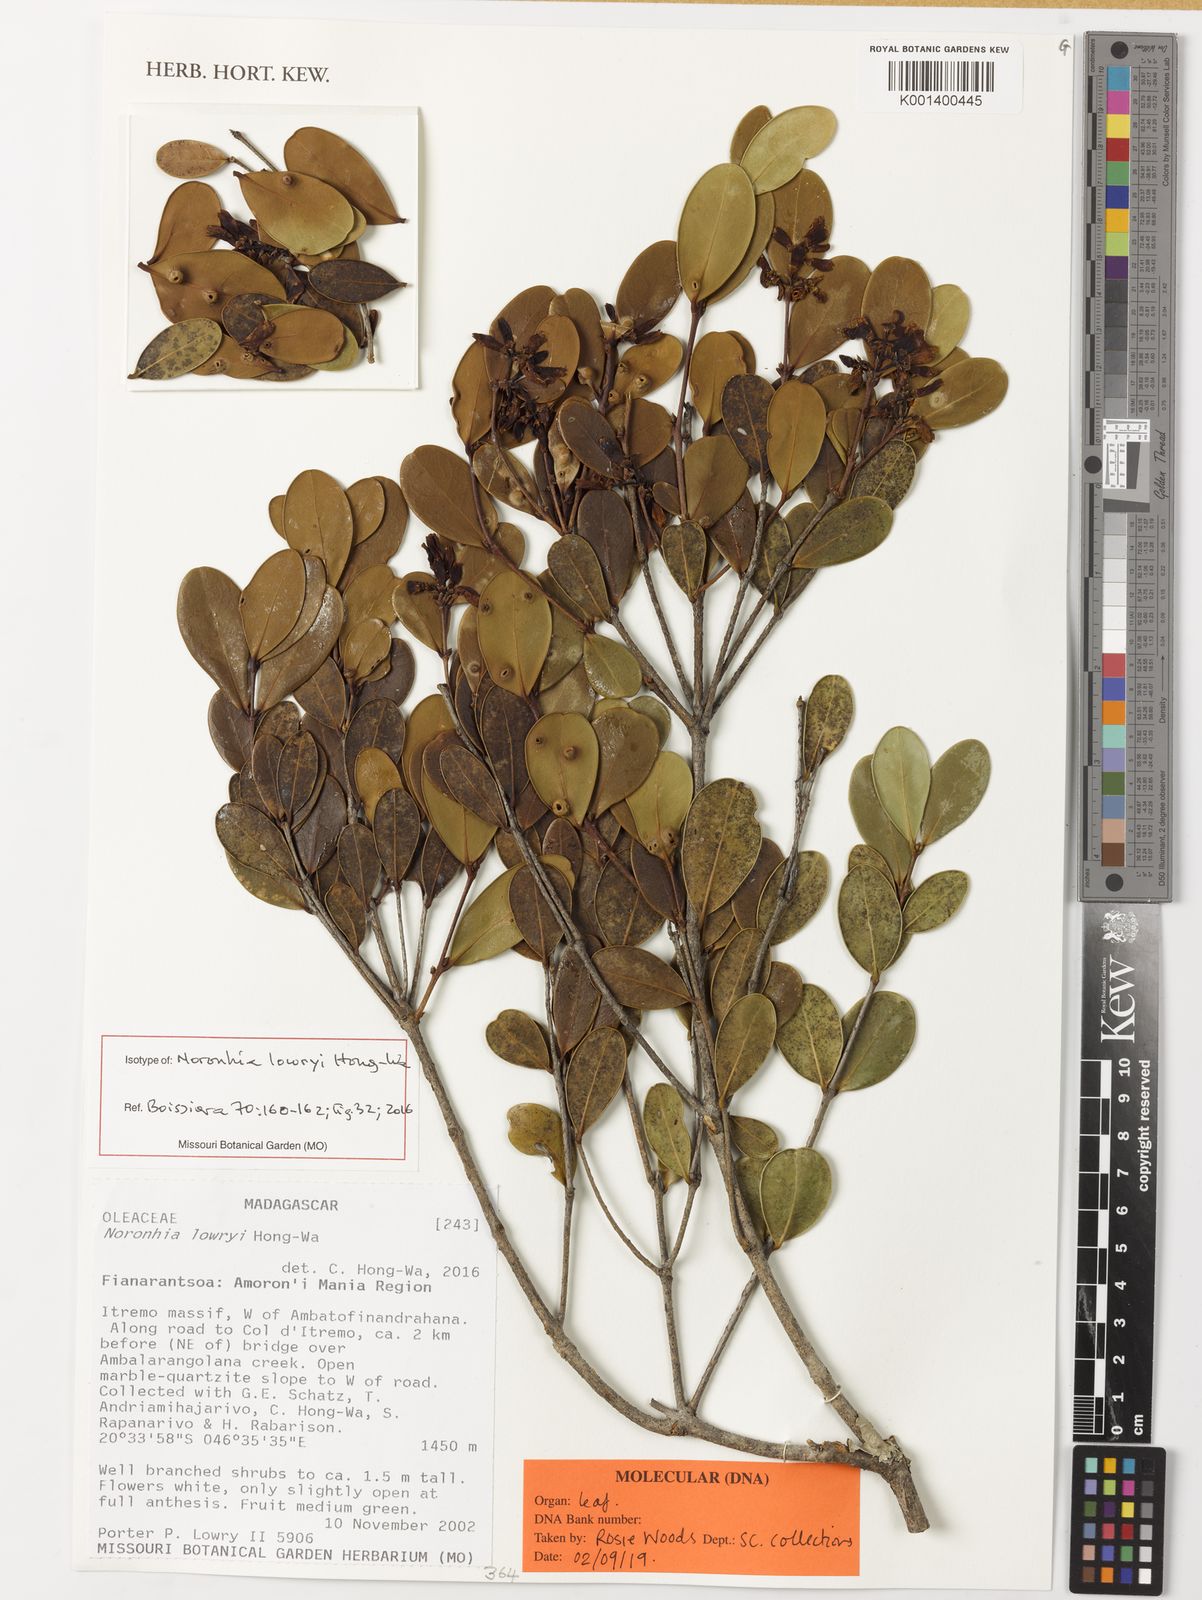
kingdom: Plantae
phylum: Tracheophyta
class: Magnoliopsida
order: Lamiales
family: Oleaceae
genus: Noronhia
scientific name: Noronhia lowryi
